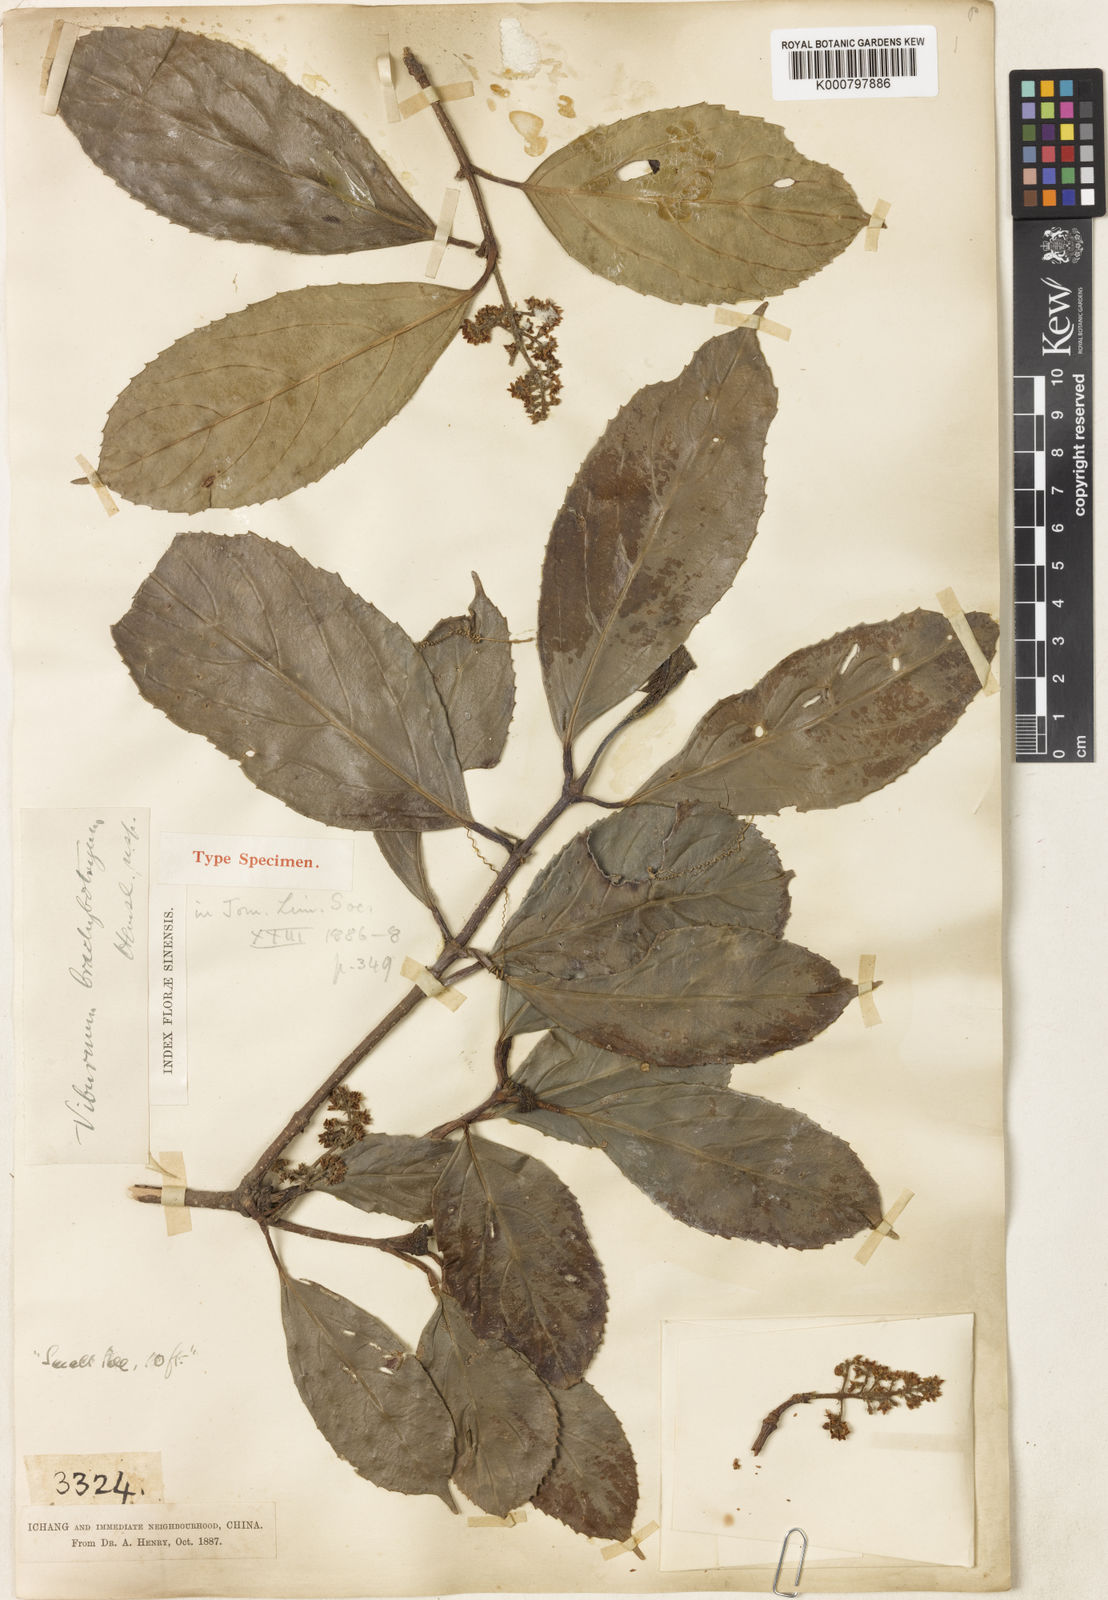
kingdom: Plantae
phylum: Tracheophyta
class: Magnoliopsida
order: Dipsacales
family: Viburnaceae
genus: Viburnum
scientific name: Viburnum brachybotryum
